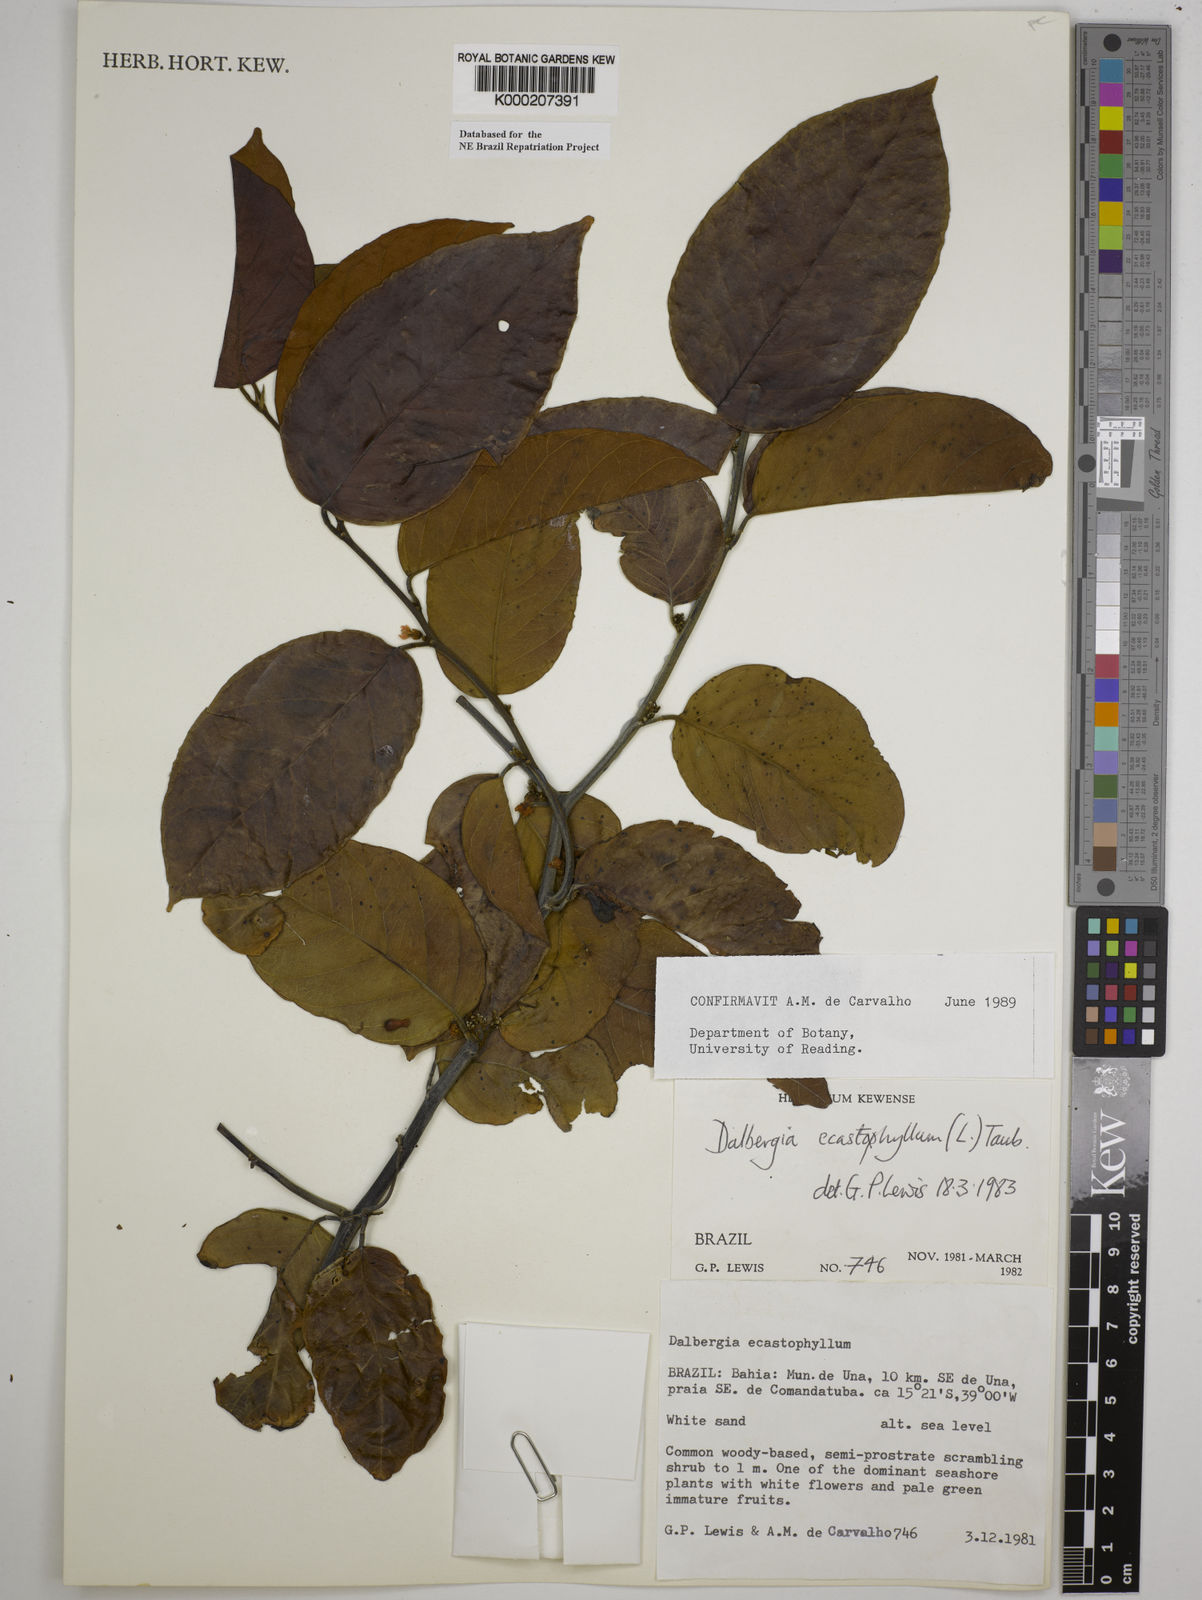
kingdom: Plantae
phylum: Tracheophyta
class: Magnoliopsida
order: Fabales
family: Fabaceae
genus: Dalbergia
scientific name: Dalbergia
